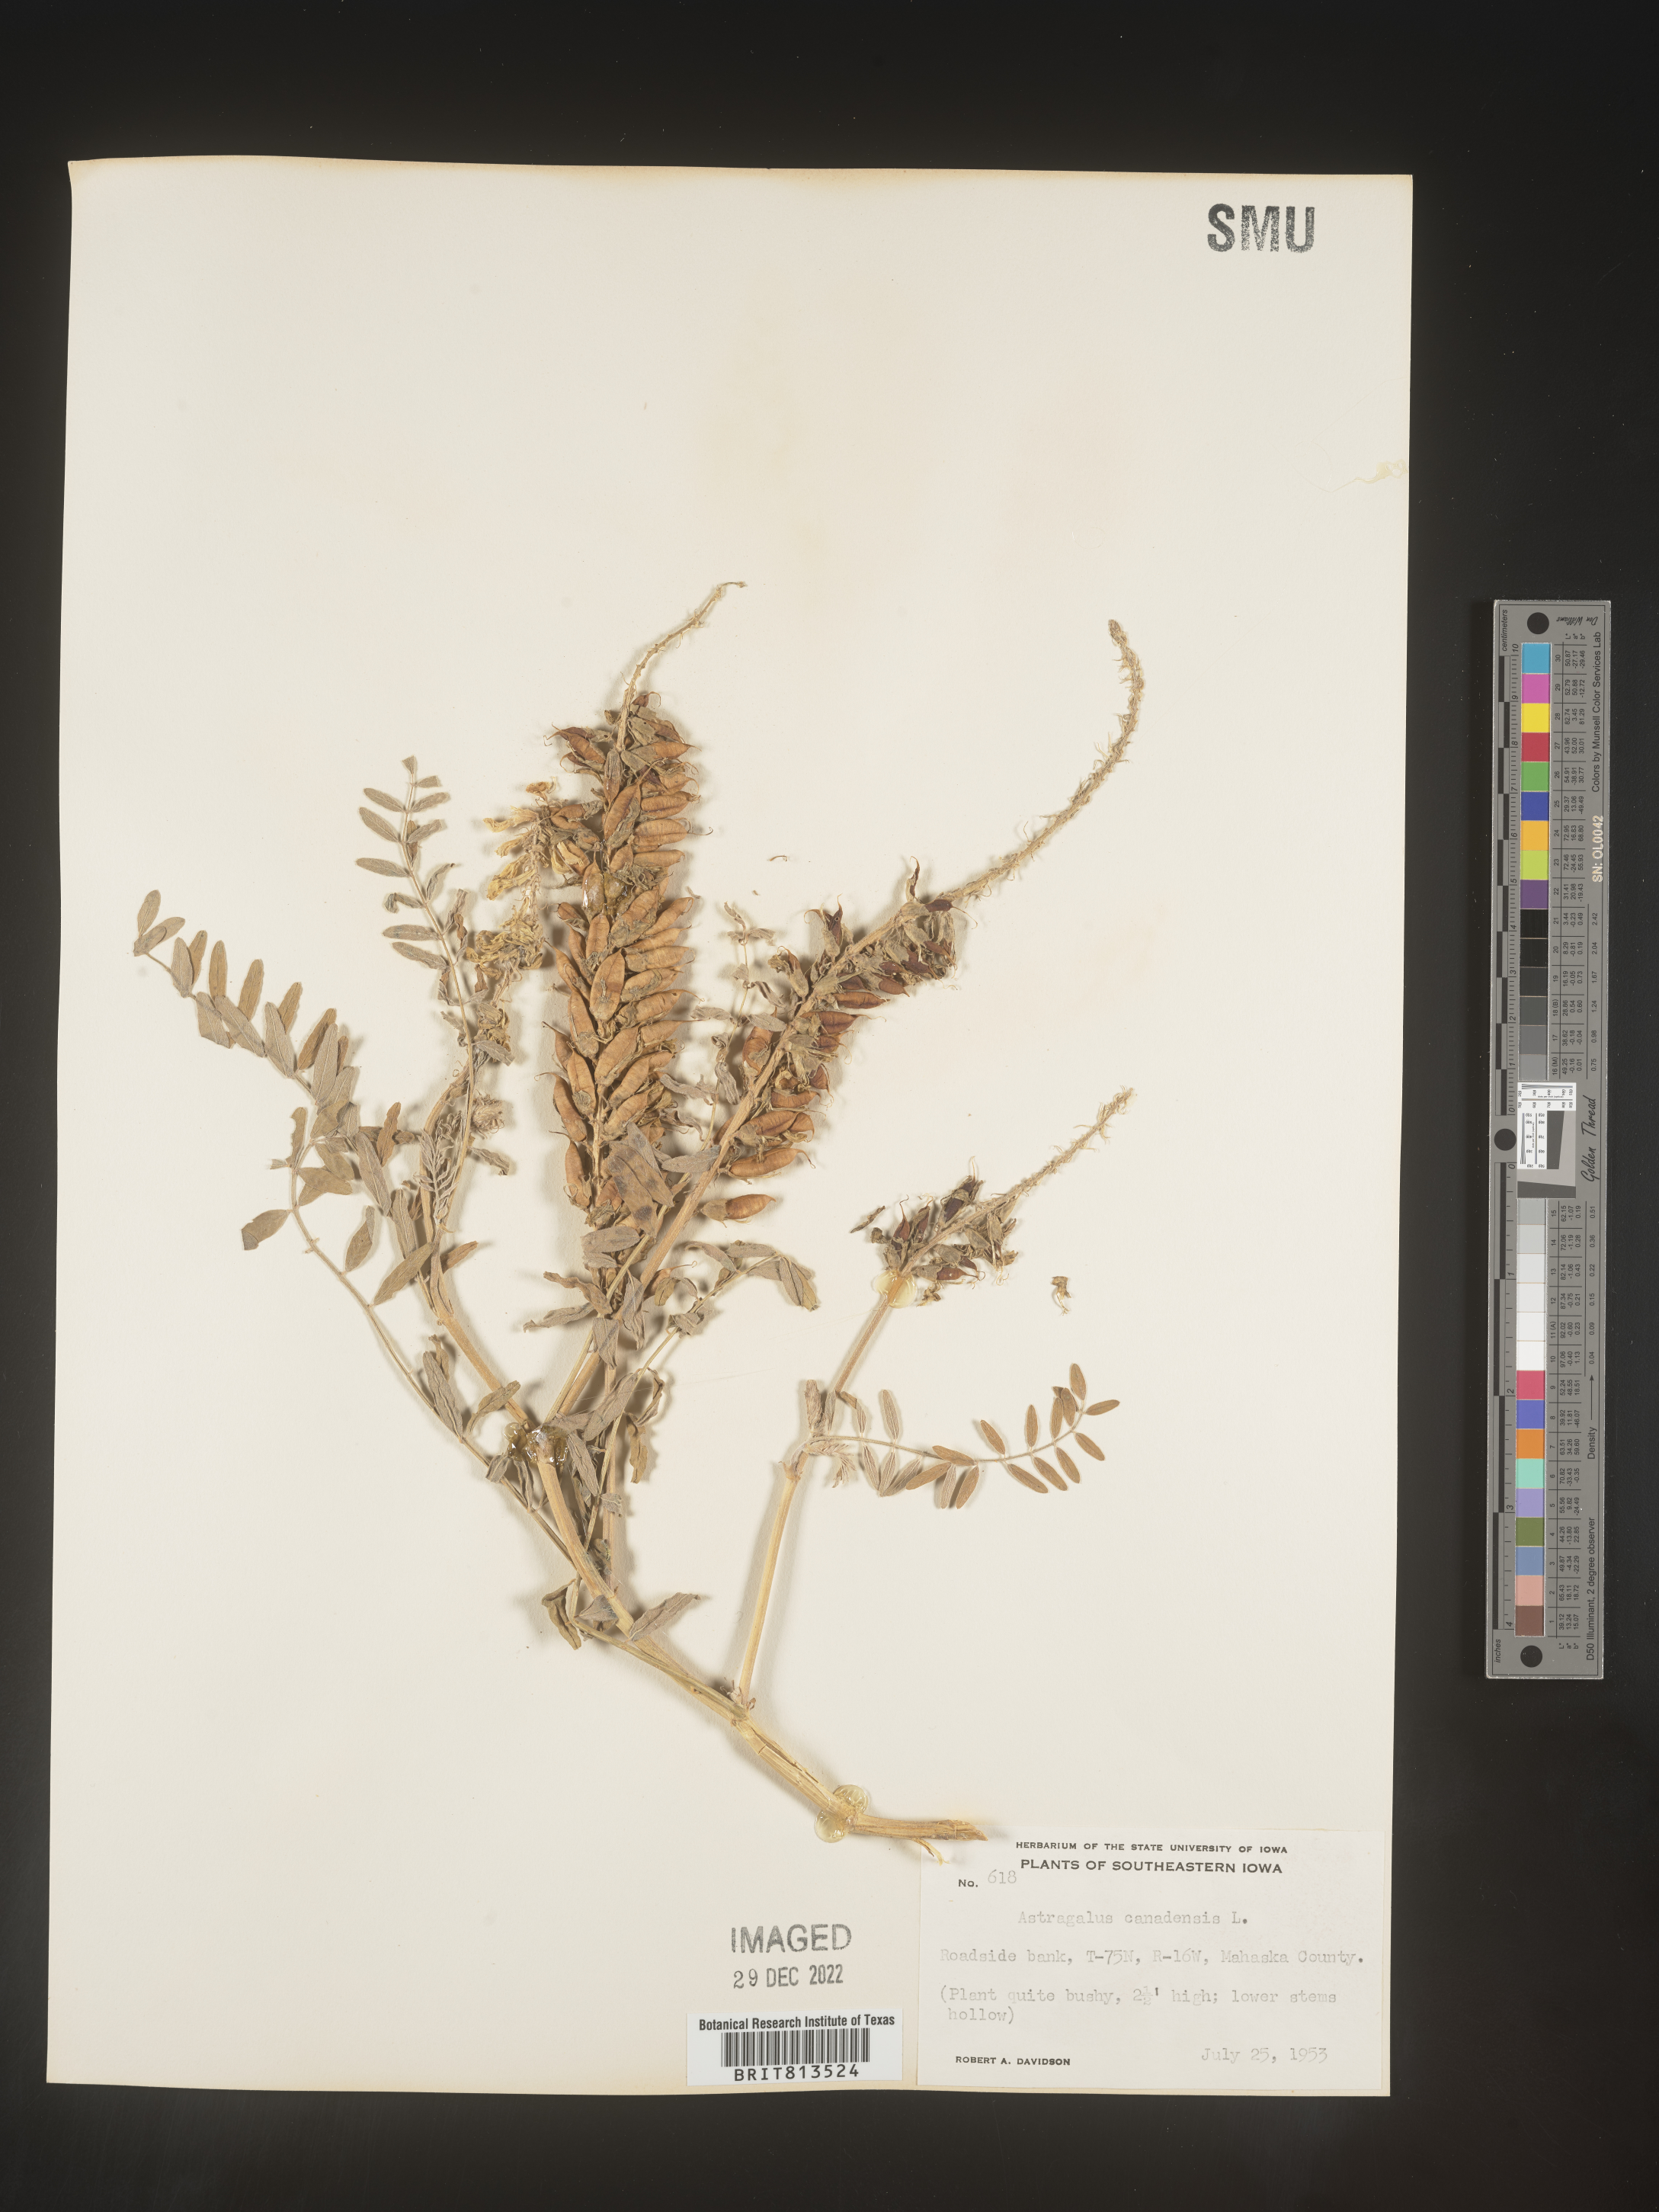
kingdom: Plantae
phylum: Tracheophyta
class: Magnoliopsida
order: Fabales
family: Fabaceae
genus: Astragalus
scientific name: Astragalus canadensis
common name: Canada milk-vetch
